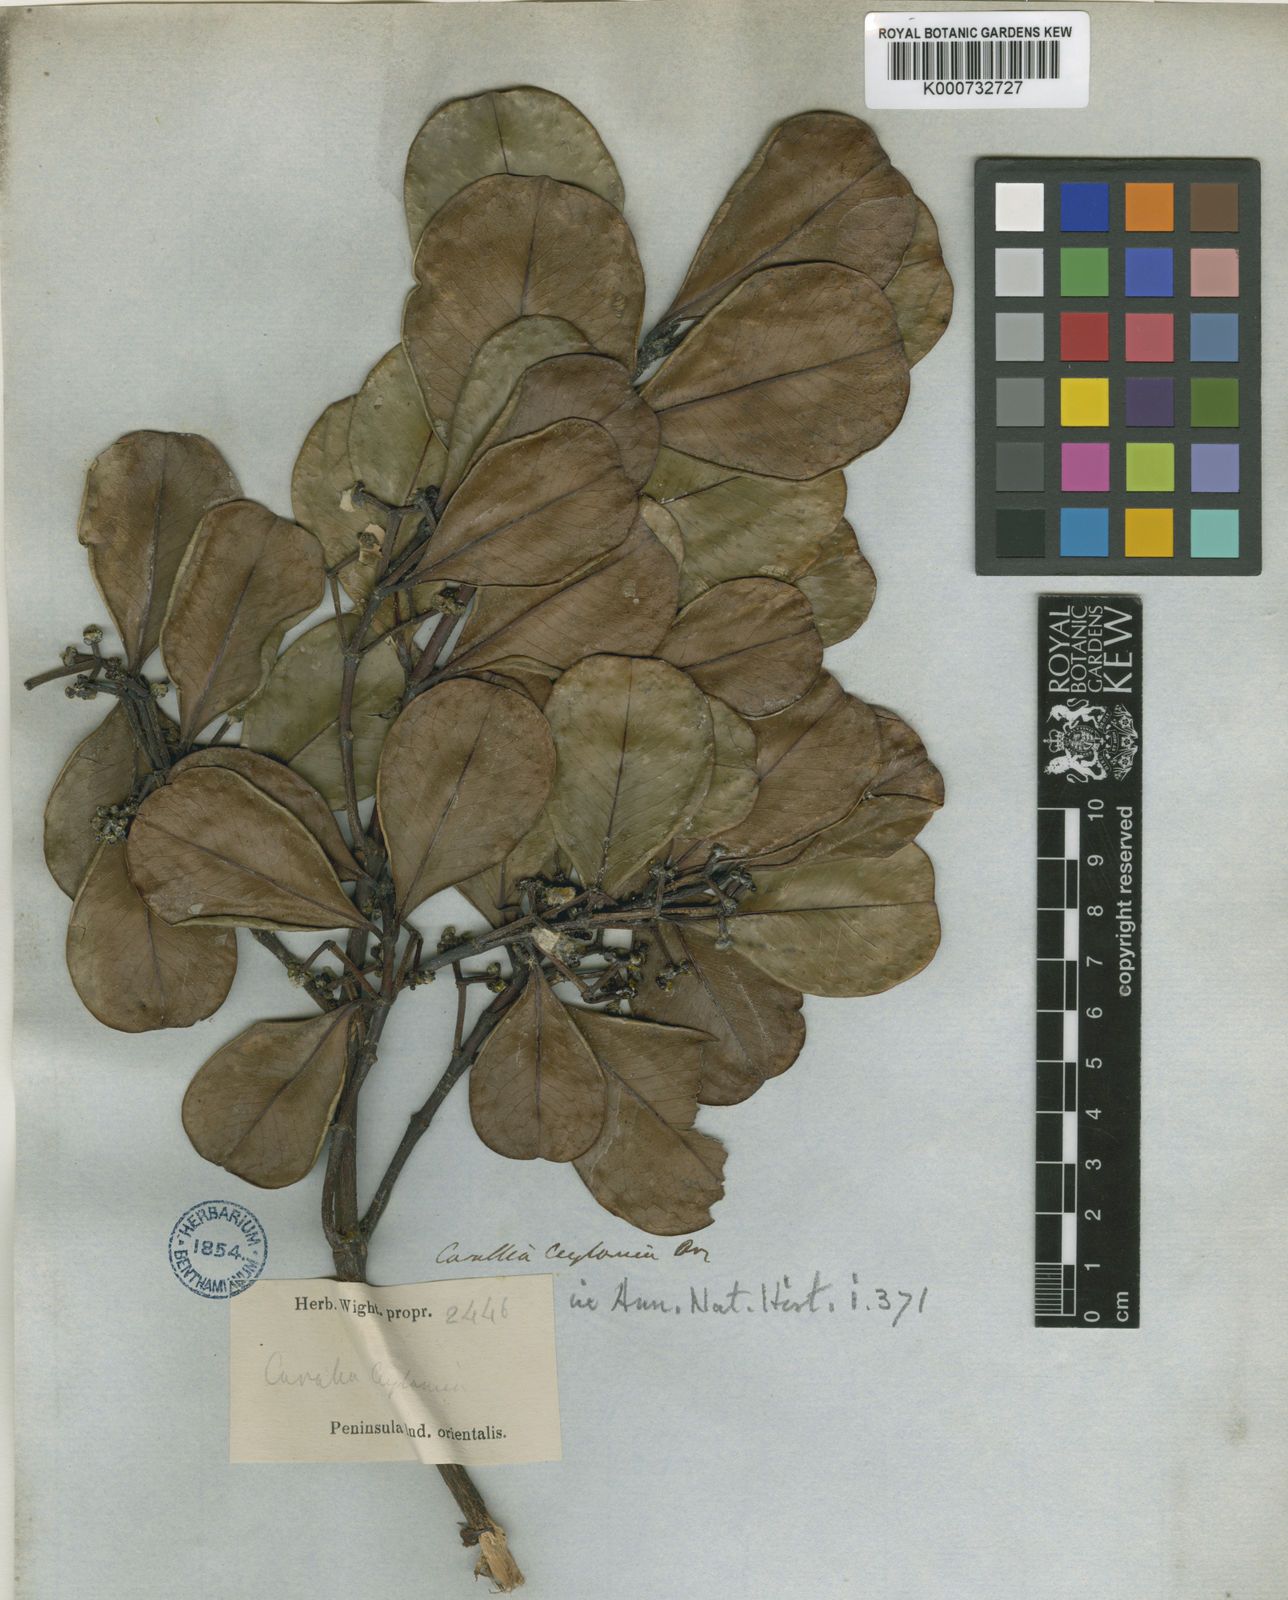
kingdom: Plantae
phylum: Tracheophyta
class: Magnoliopsida
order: Malpighiales
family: Rhizophoraceae
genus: Carallia
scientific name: Carallia brachiata
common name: Carallawood
